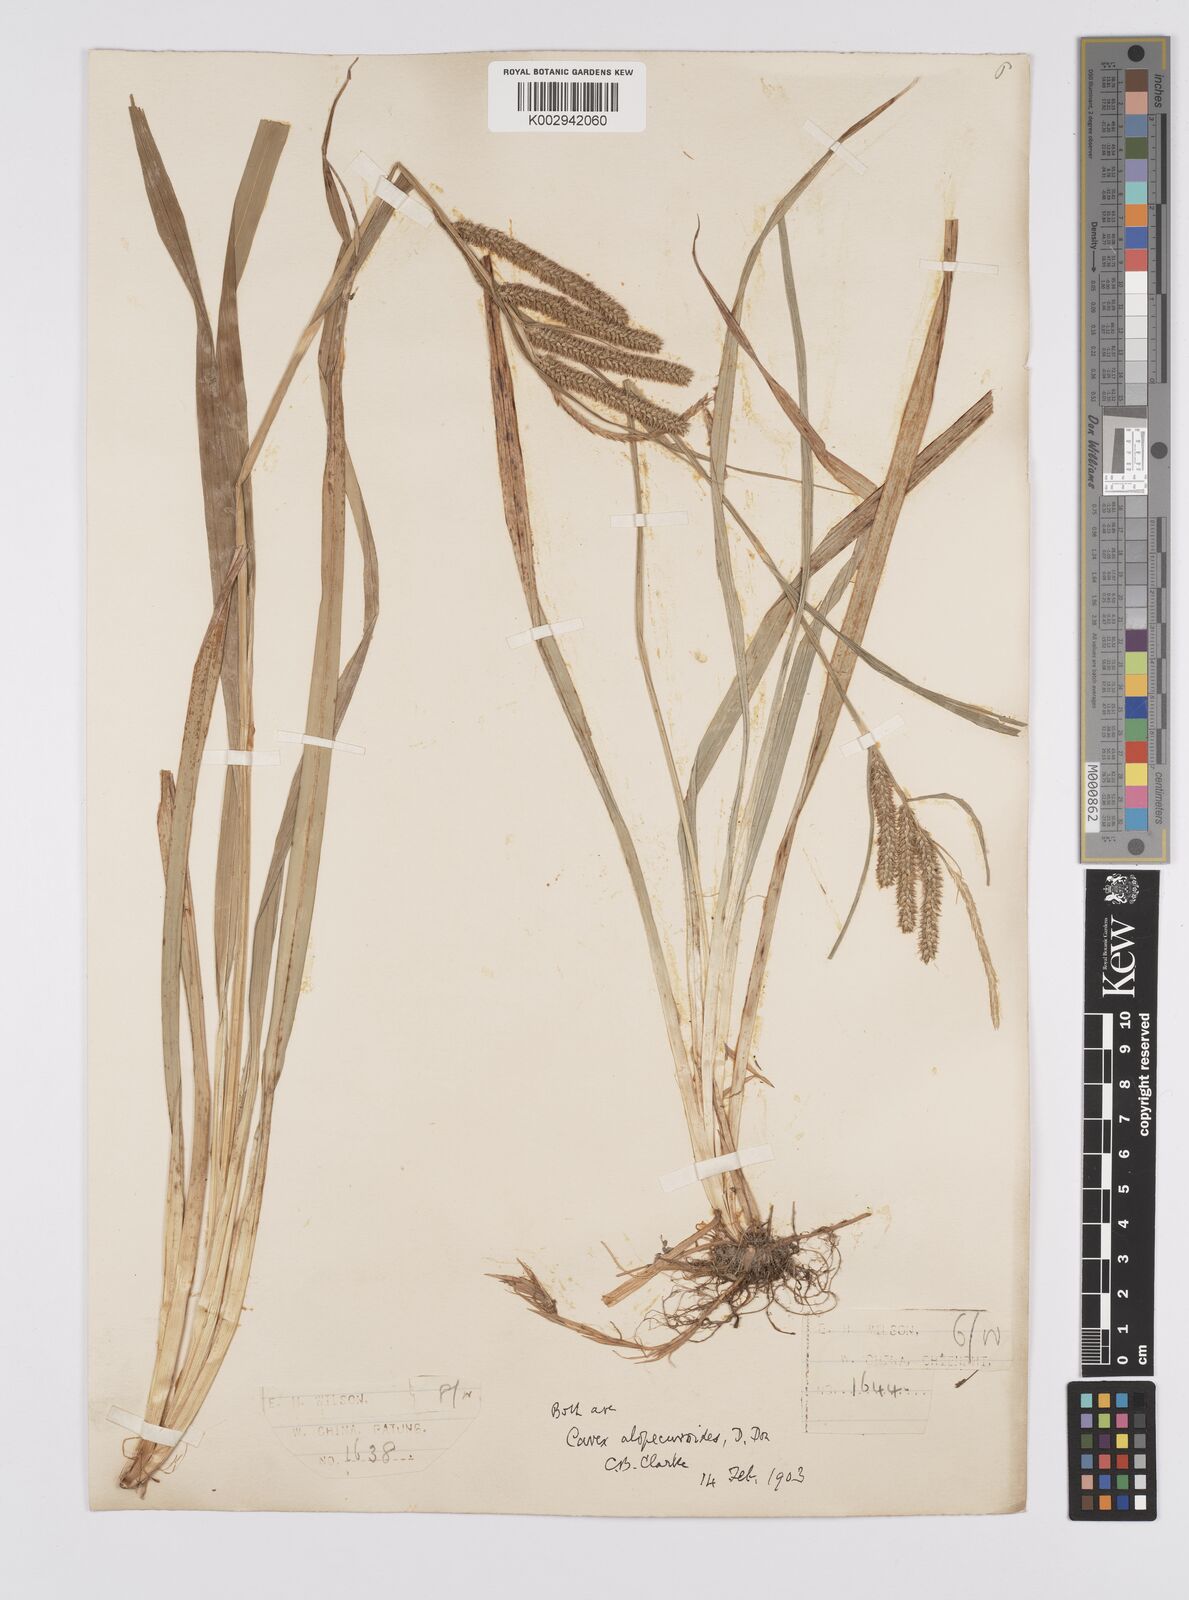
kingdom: Plantae
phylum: Tracheophyta
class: Liliopsida
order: Poales
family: Cyperaceae
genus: Carex
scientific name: Carex japonica
